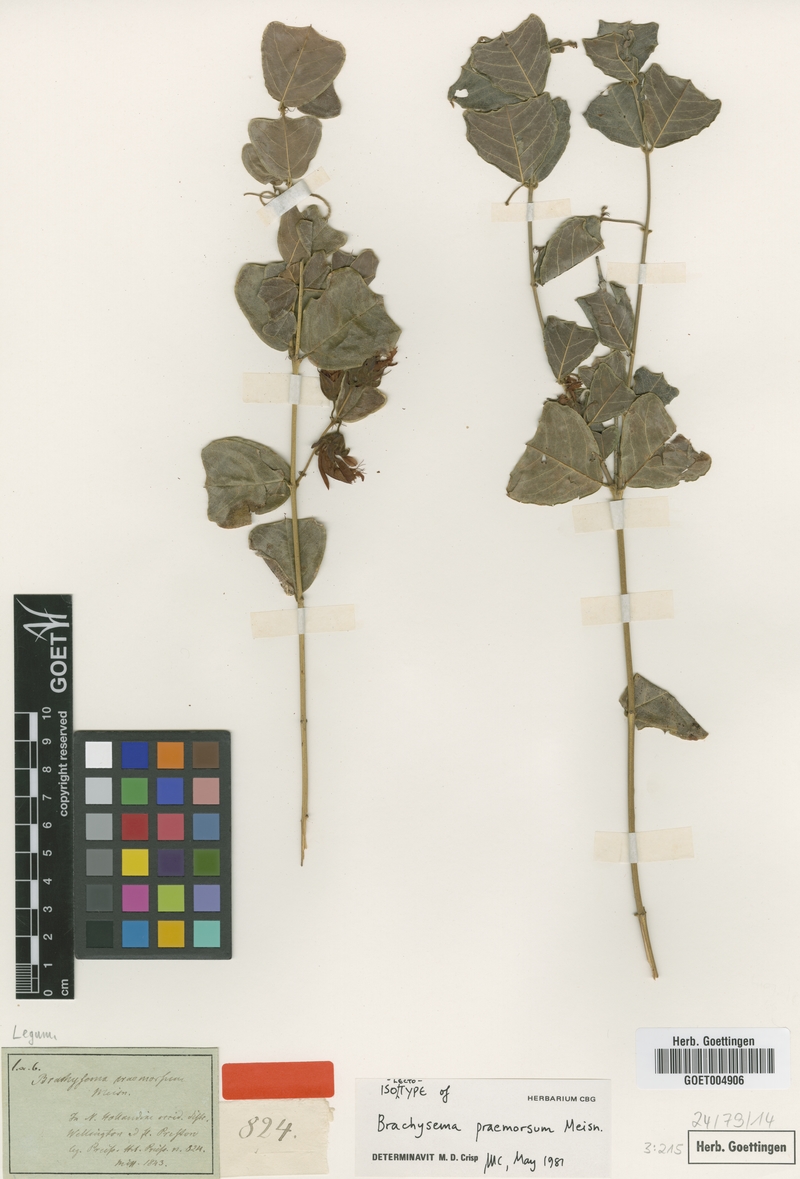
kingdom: Plantae
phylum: Tracheophyta
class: Magnoliopsida
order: Fabales
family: Fabaceae
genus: Gastrolobium
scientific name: Gastrolobium praemorsum
